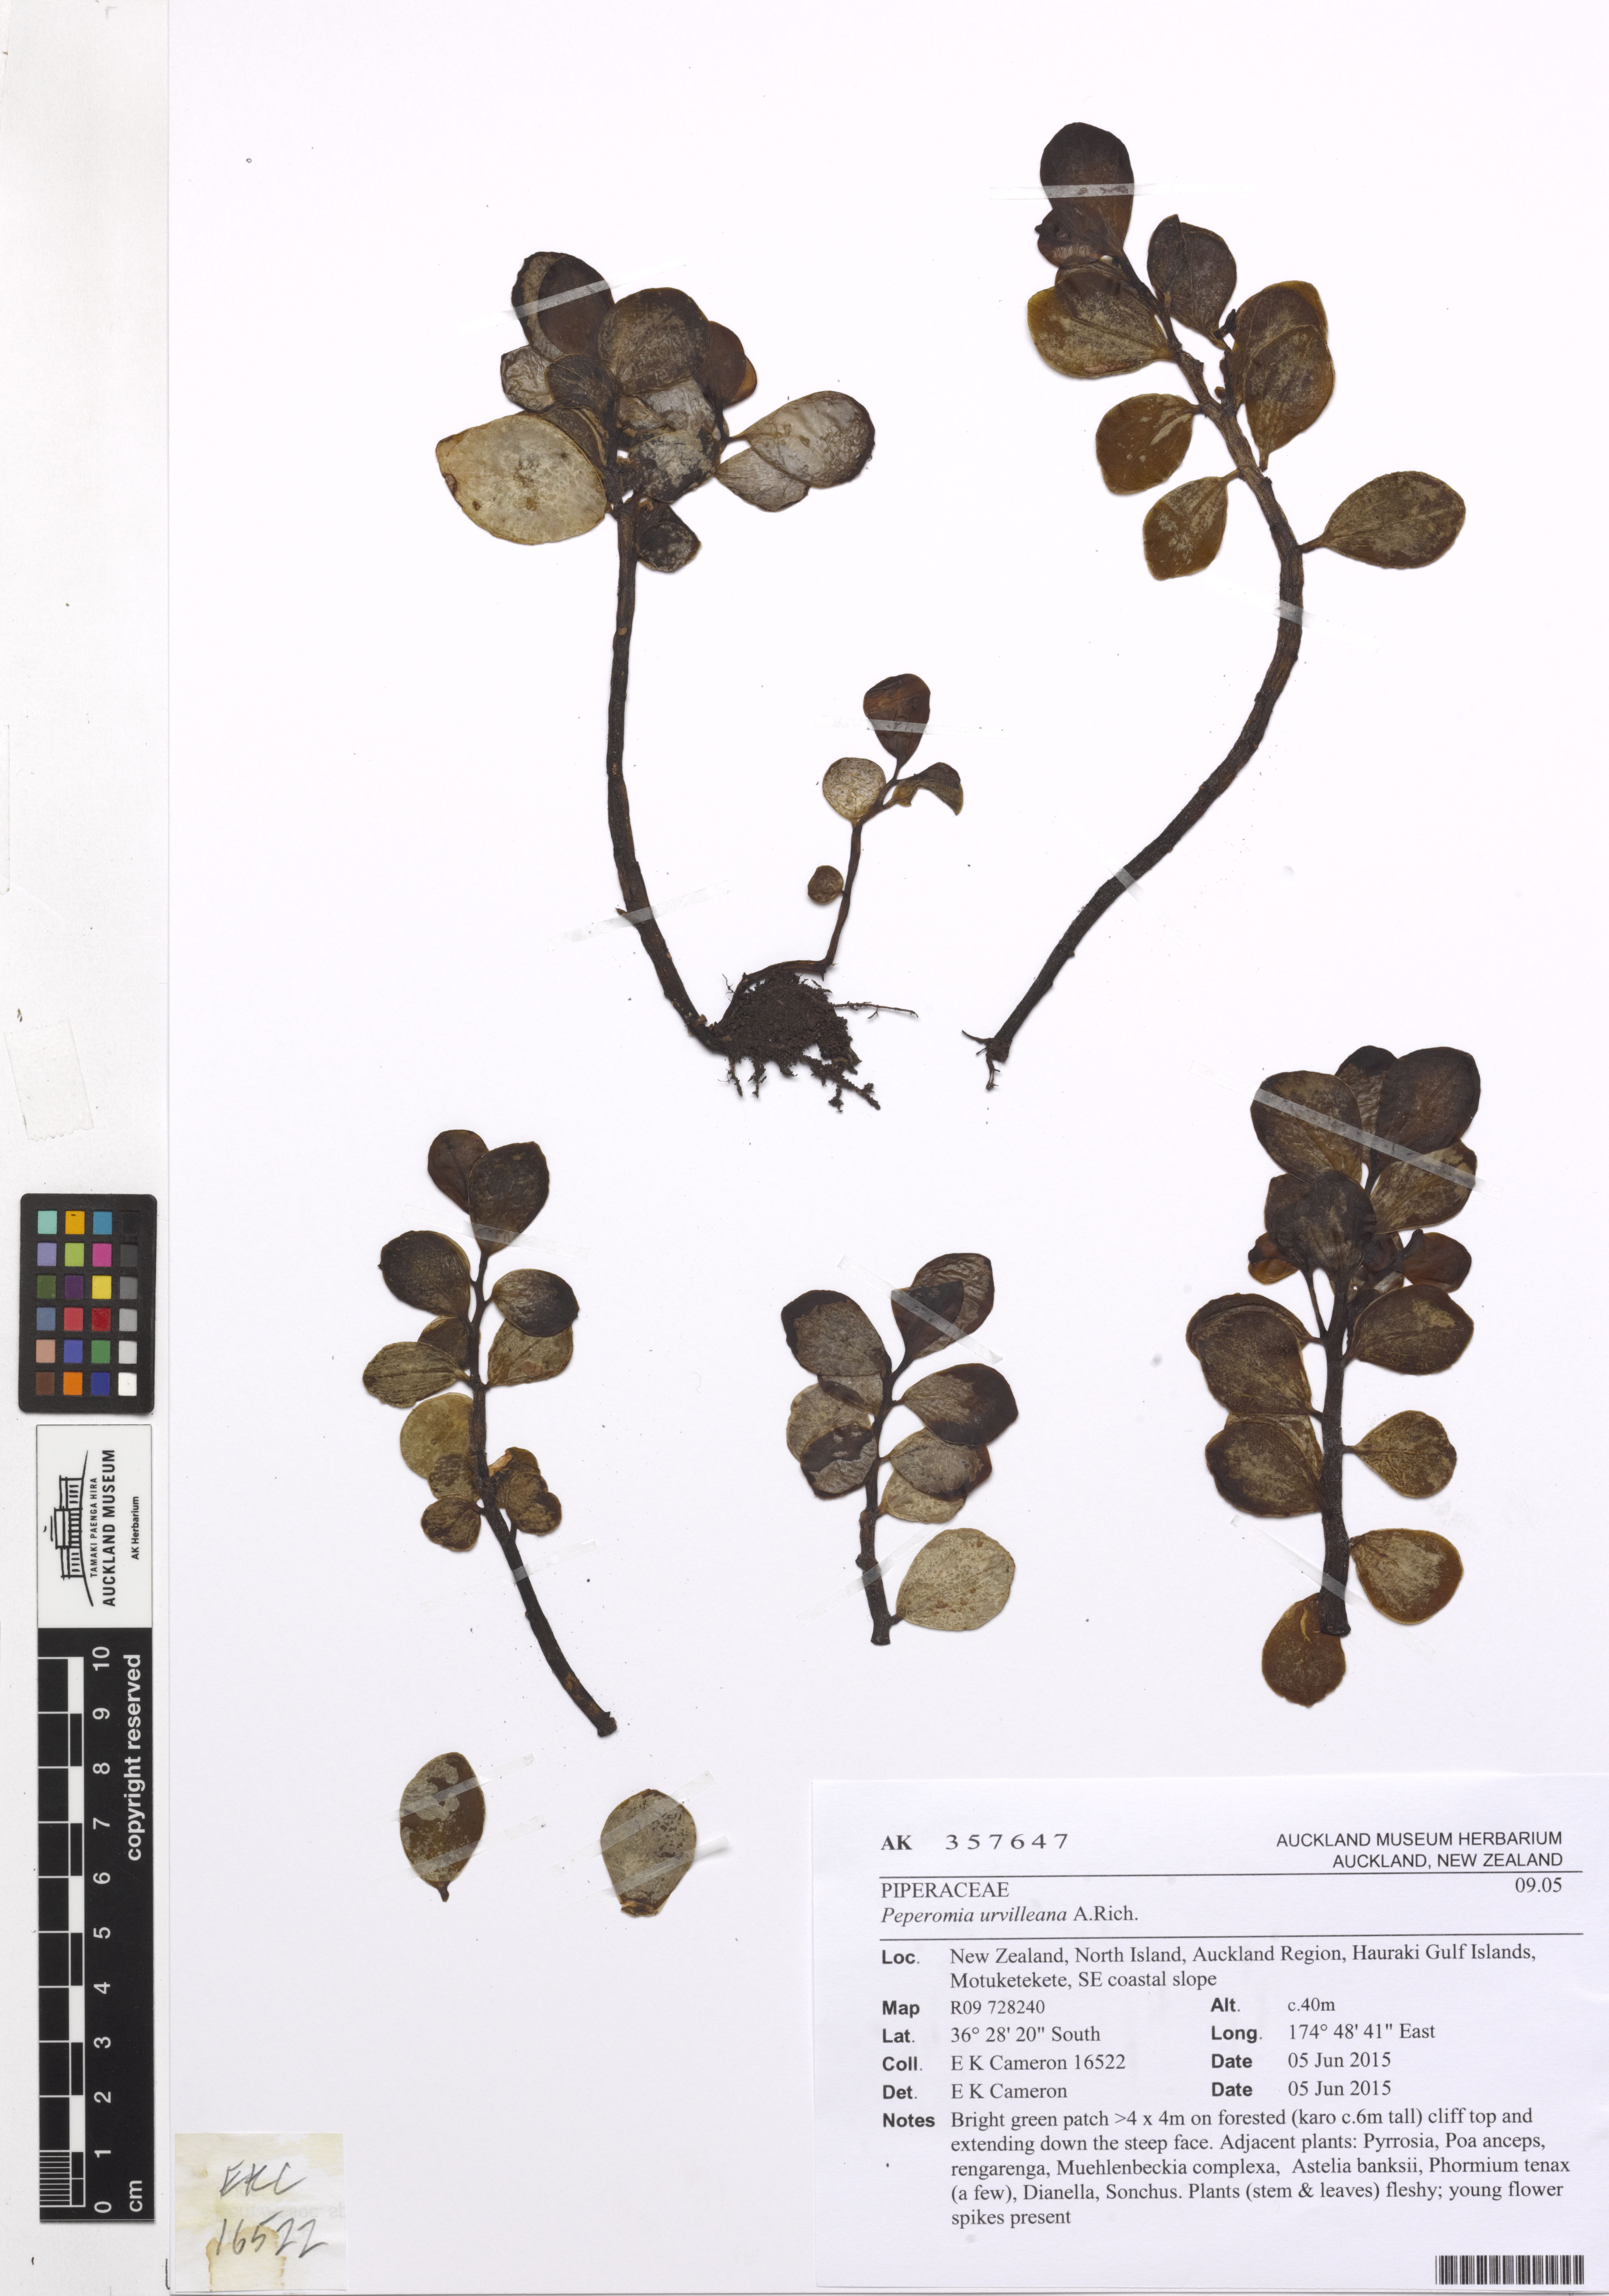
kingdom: Plantae
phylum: Tracheophyta
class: Magnoliopsida
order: Piperales
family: Piperaceae
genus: Peperomia
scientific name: Peperomia urvilleana
